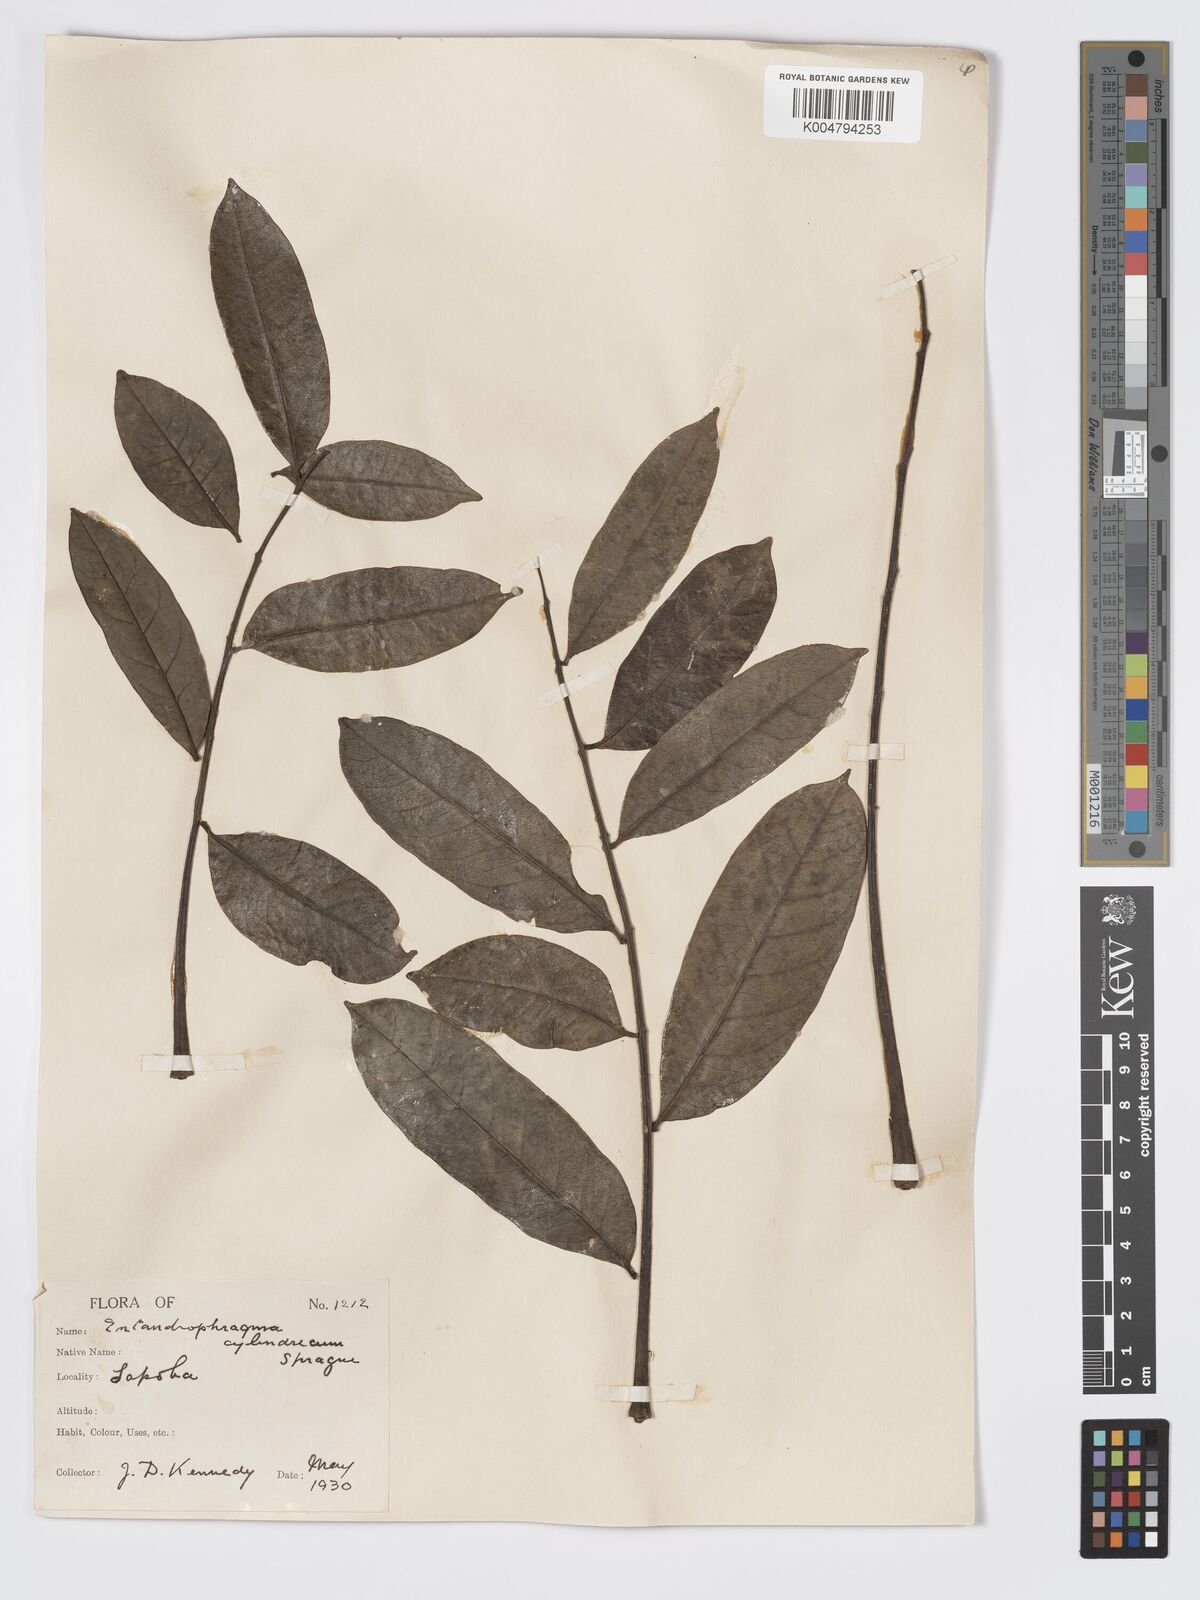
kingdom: Plantae
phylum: Tracheophyta
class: Magnoliopsida
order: Sapindales
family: Meliaceae
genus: Entandrophragma
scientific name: Entandrophragma cylindricum
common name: Sapele
